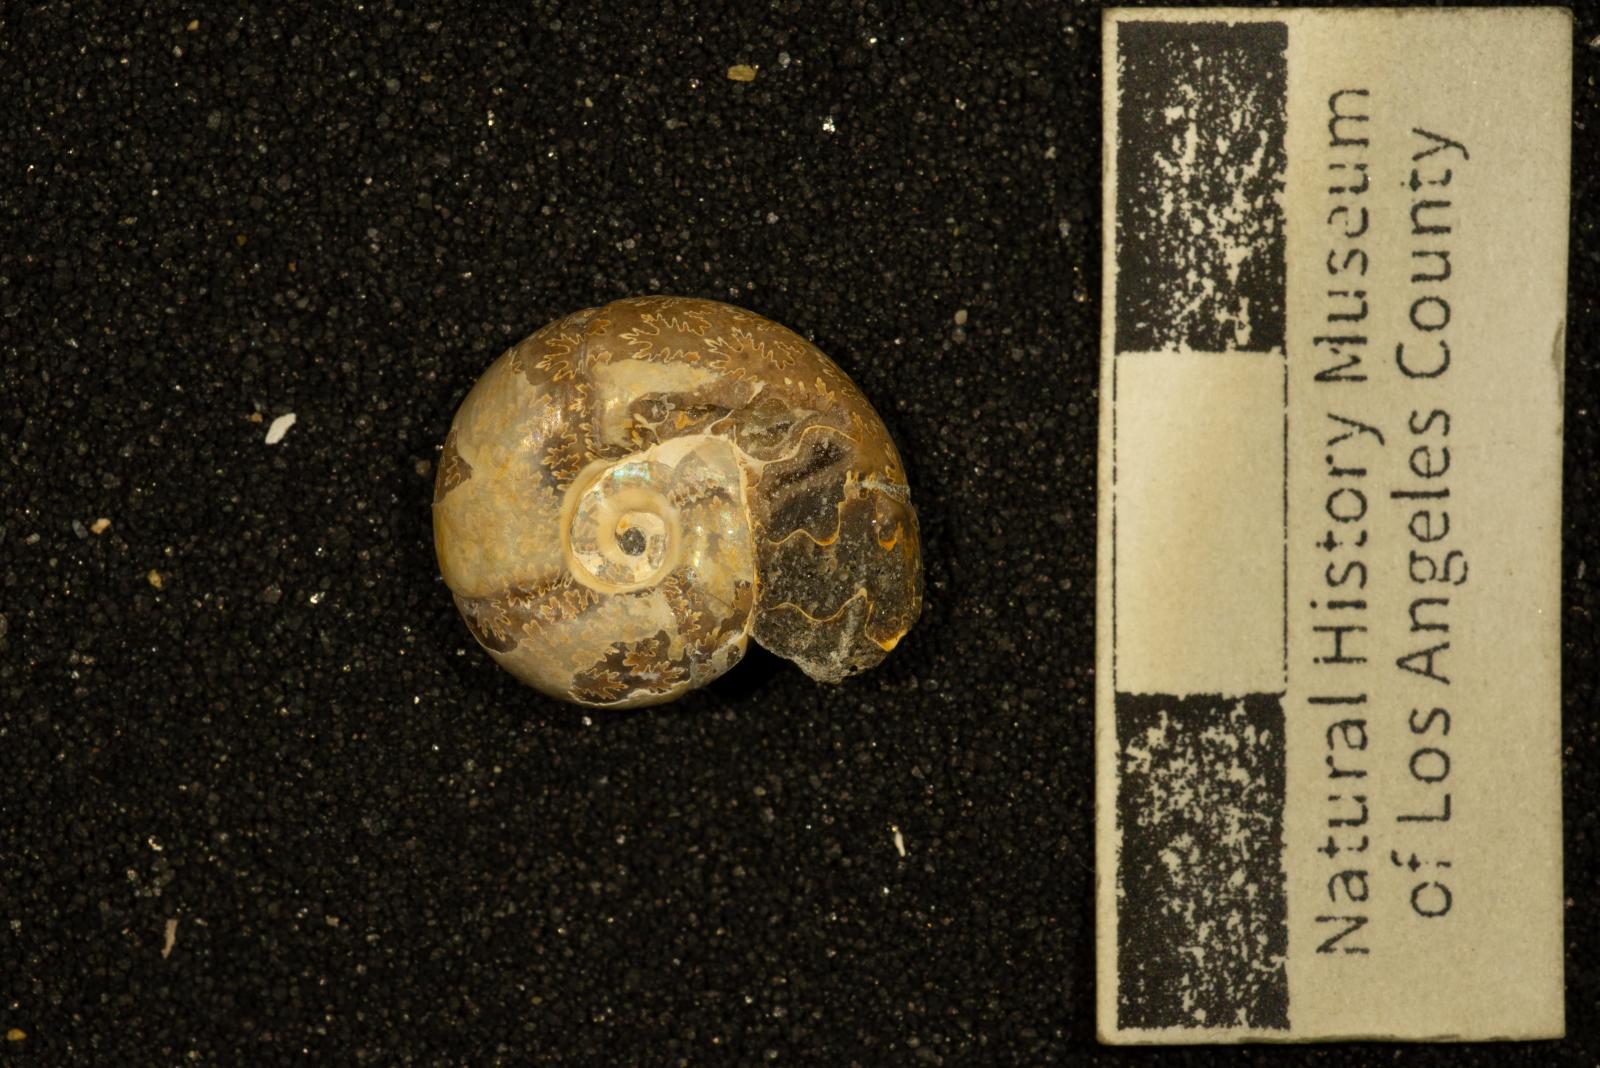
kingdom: Animalia
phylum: Mollusca
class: Cephalopoda
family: Desmoceratidae
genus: Mesopuzosia
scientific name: Mesopuzosia
